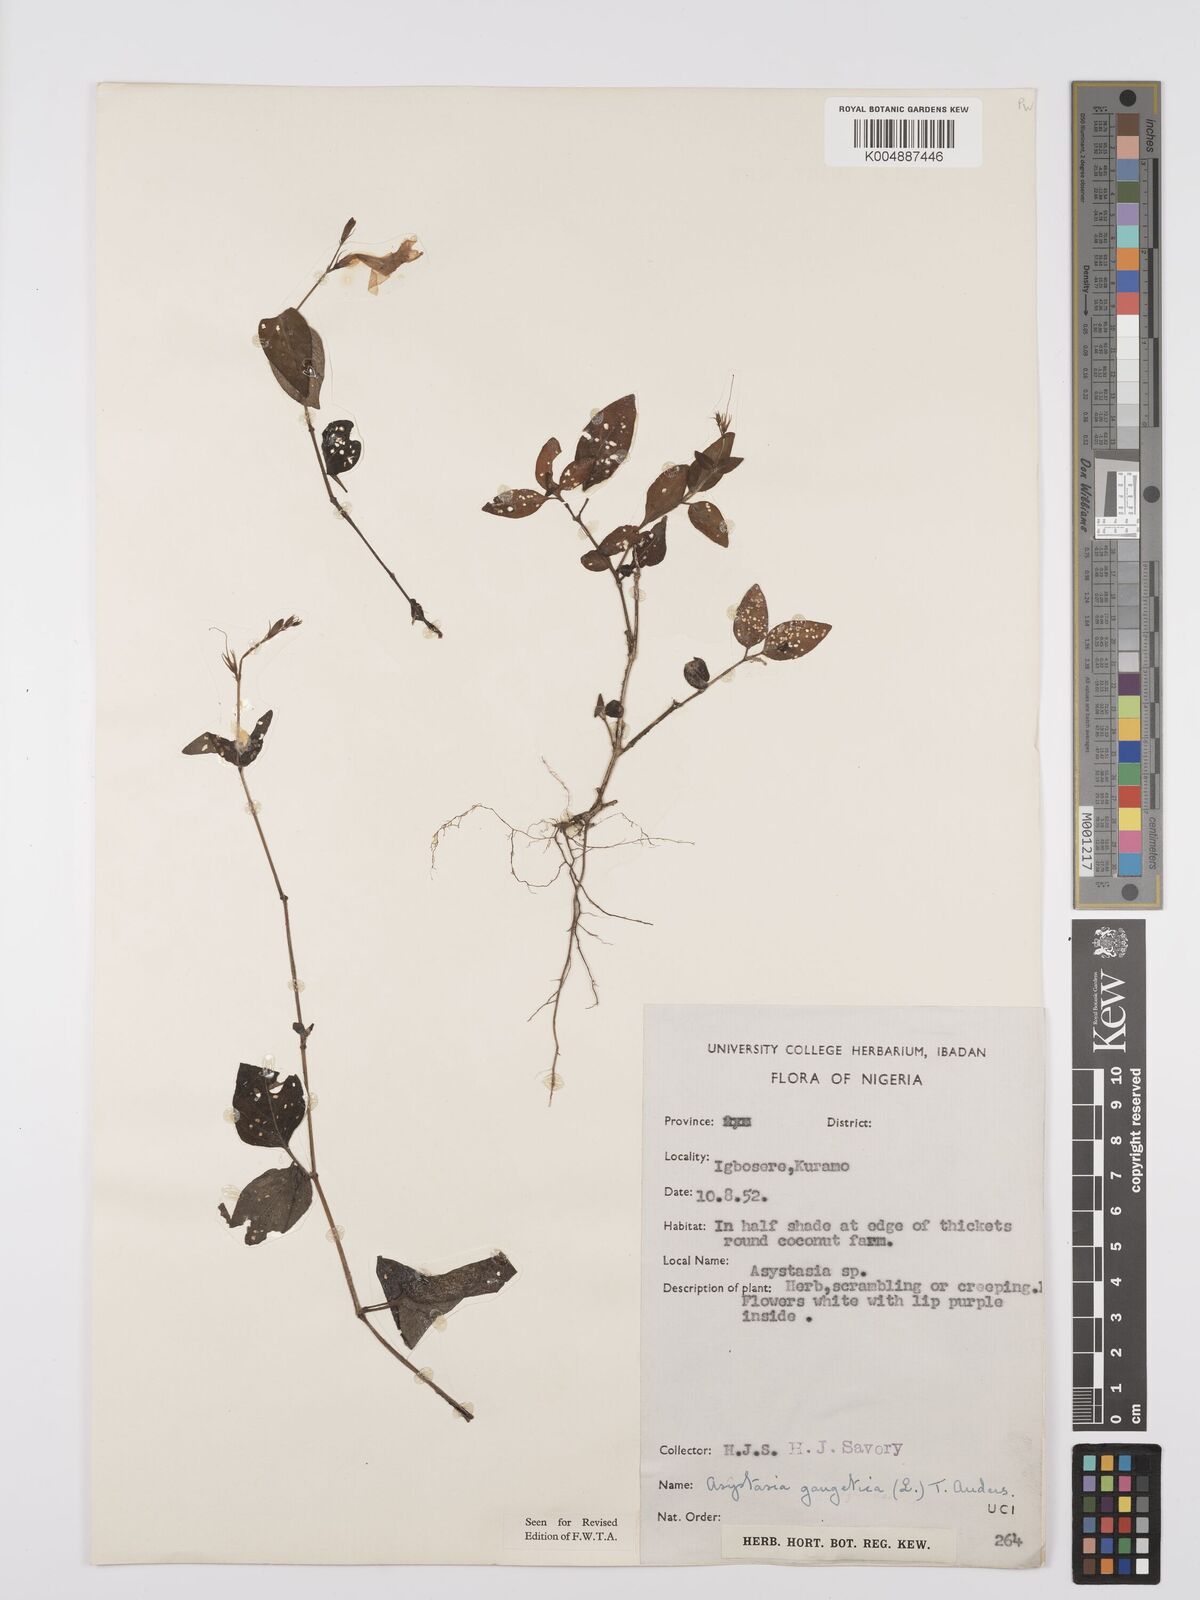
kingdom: Plantae
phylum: Tracheophyta
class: Magnoliopsida
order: Lamiales
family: Acanthaceae
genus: Asystasia
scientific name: Asystasia gangetica
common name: Chinese violet
